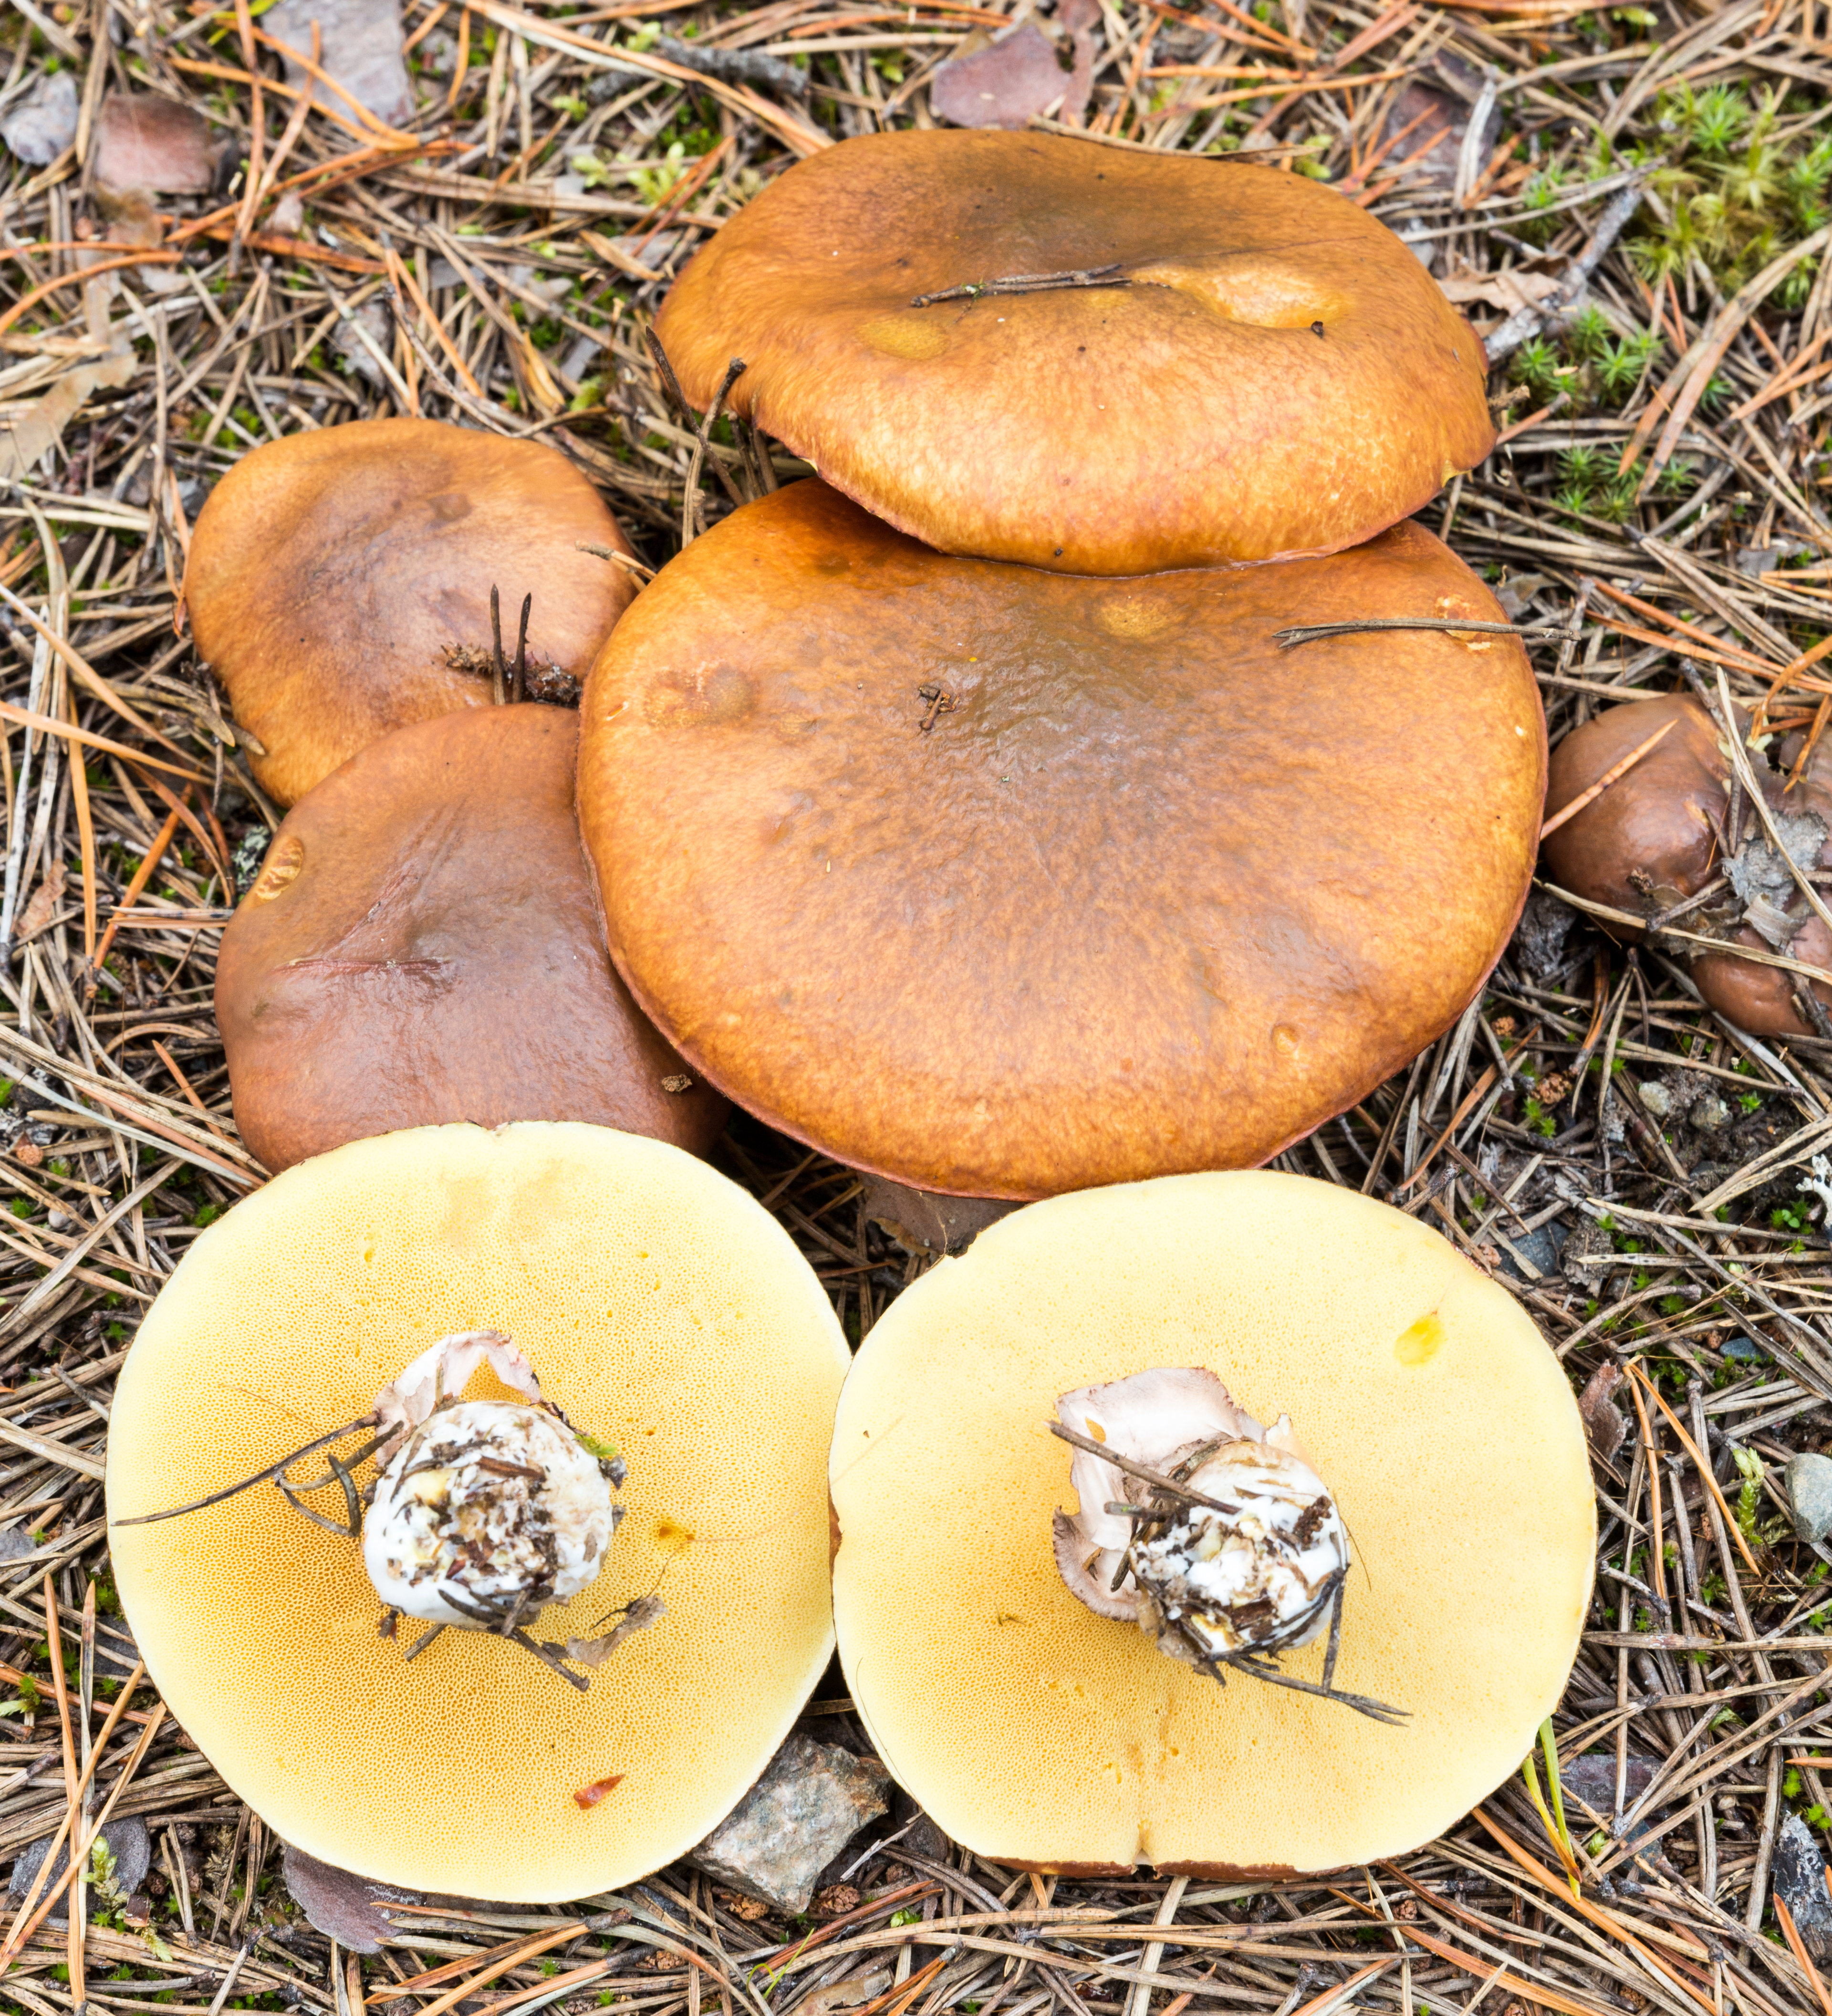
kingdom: Fungi
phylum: Basidiomycota
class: Agaricomycetes
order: Boletales
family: Suillaceae
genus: Suillus
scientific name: Suillus luteus
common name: Slippery jack
